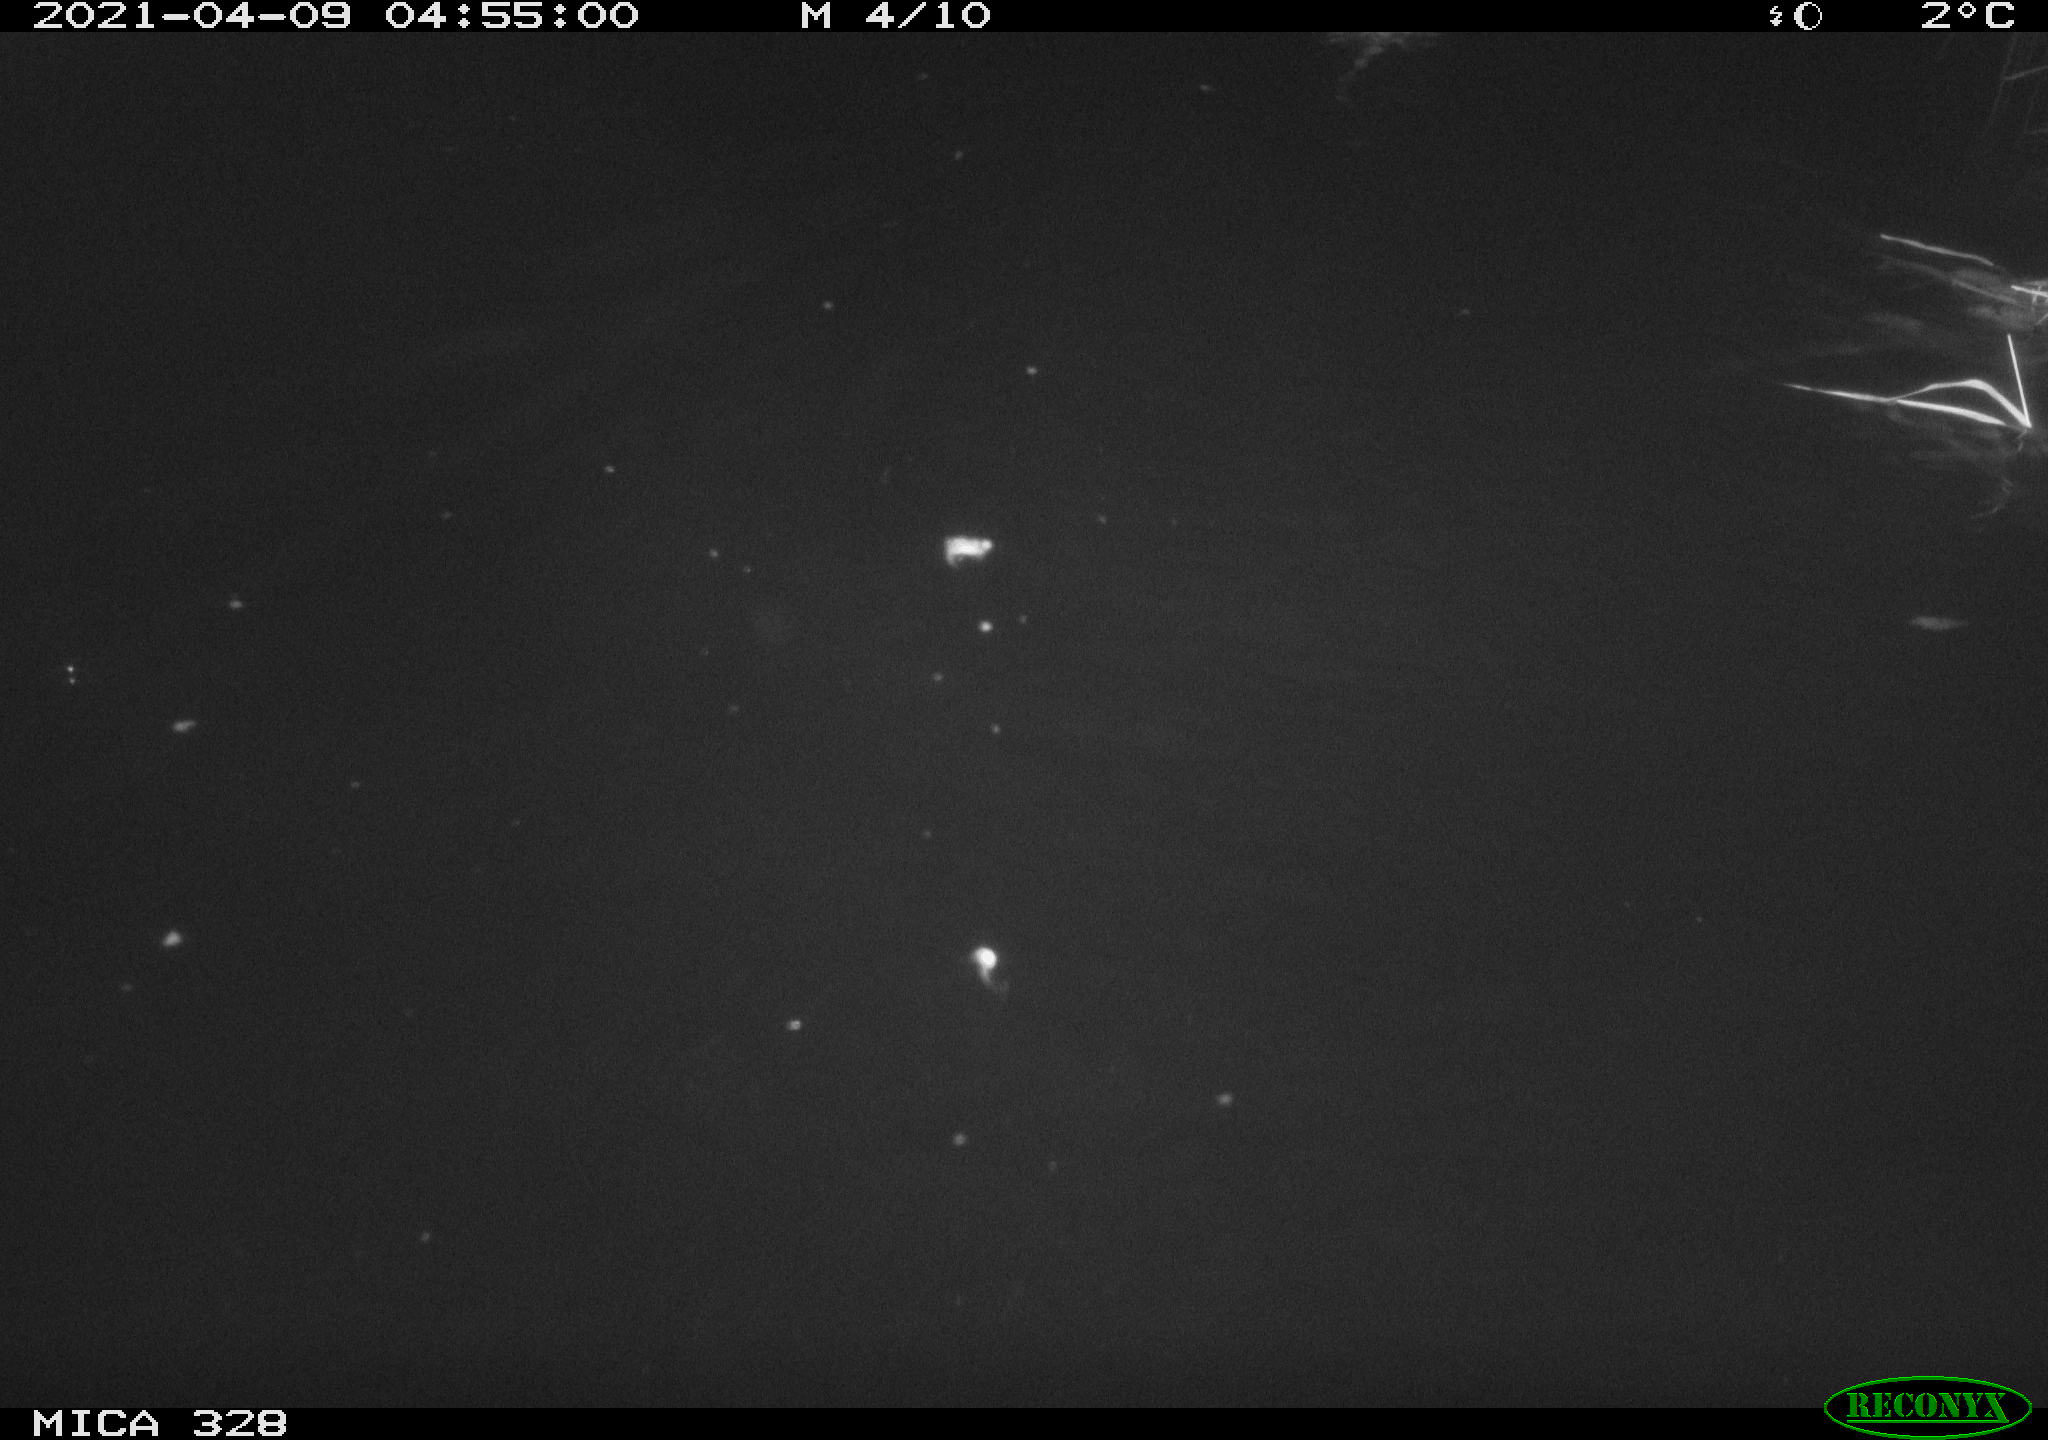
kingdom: Animalia
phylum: Chordata
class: Mammalia
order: Rodentia
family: Cricetidae
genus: Ondatra
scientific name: Ondatra zibethicus
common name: Muskrat
